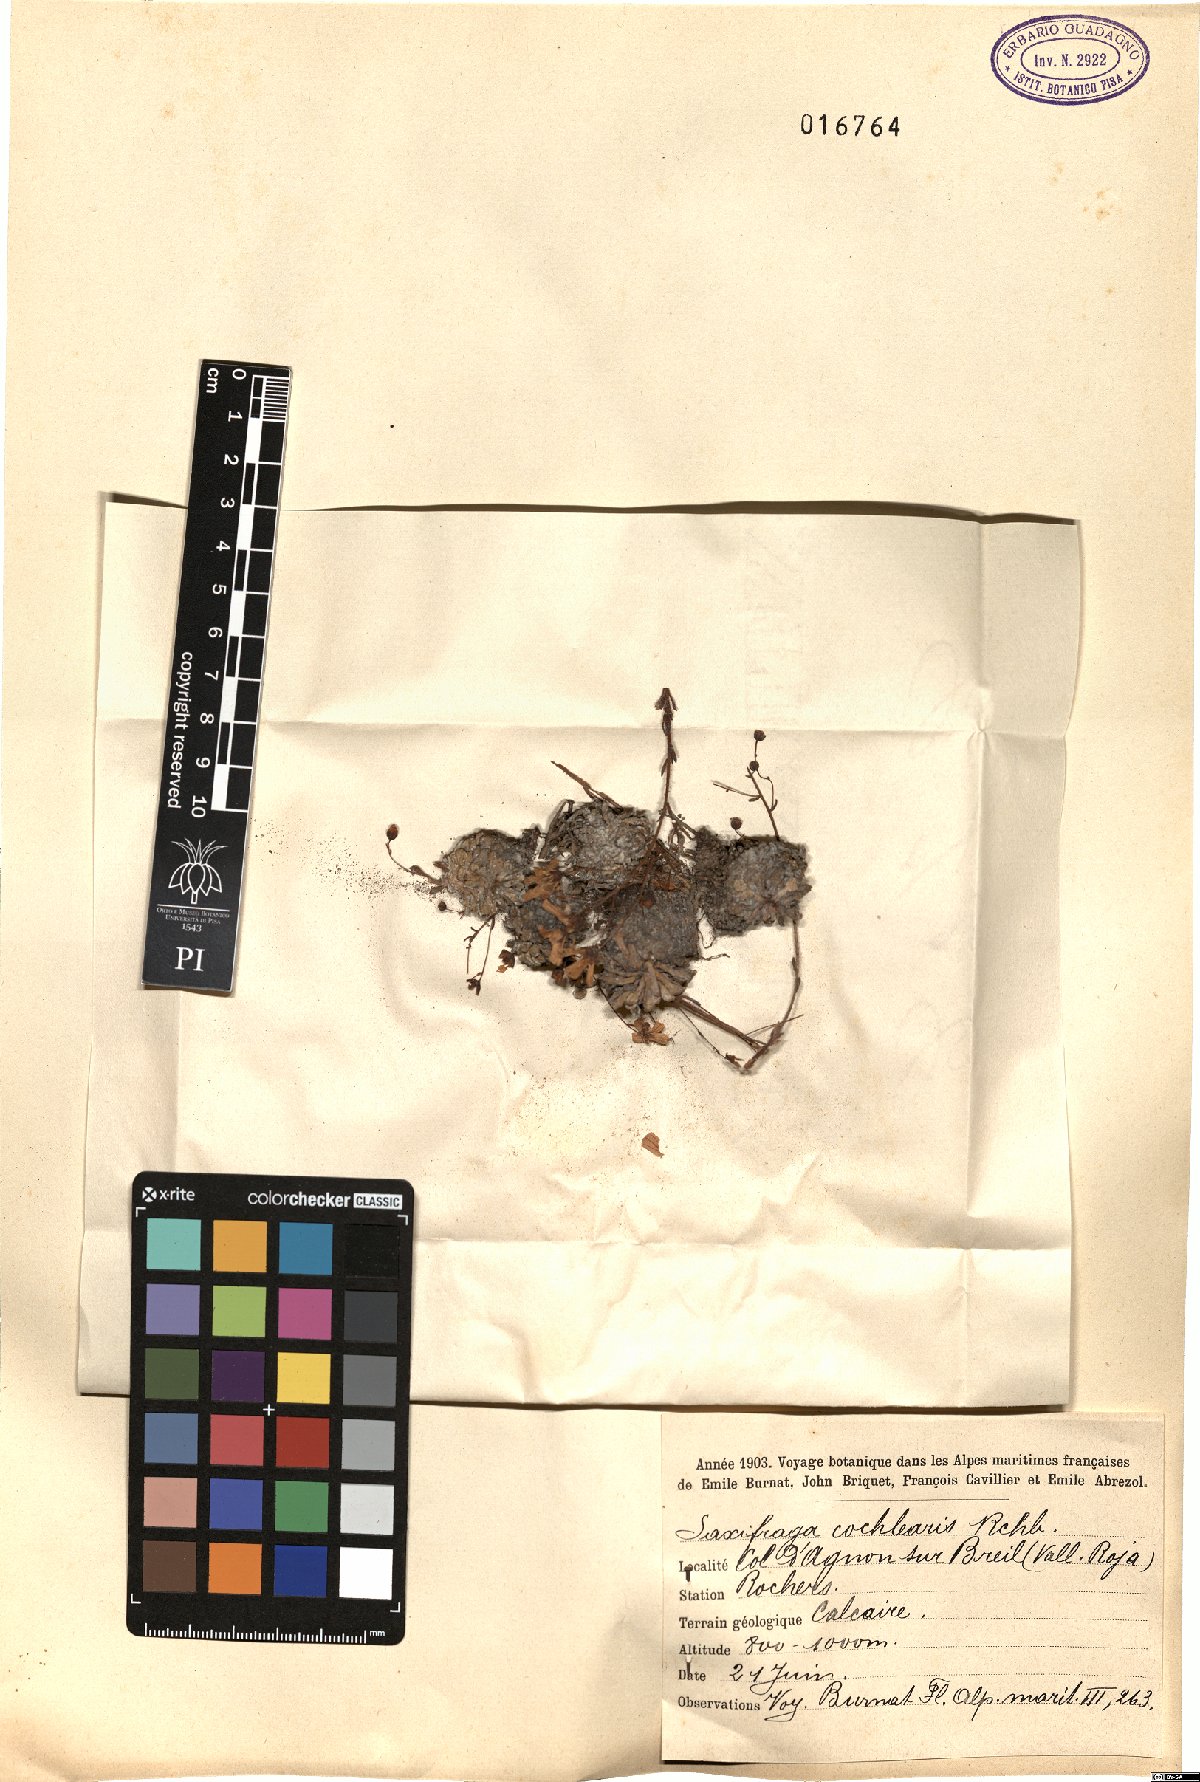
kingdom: Plantae
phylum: Tracheophyta
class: Magnoliopsida
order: Saxifragales
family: Saxifragaceae
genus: Saxifraga
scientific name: Saxifraga cochlearis
